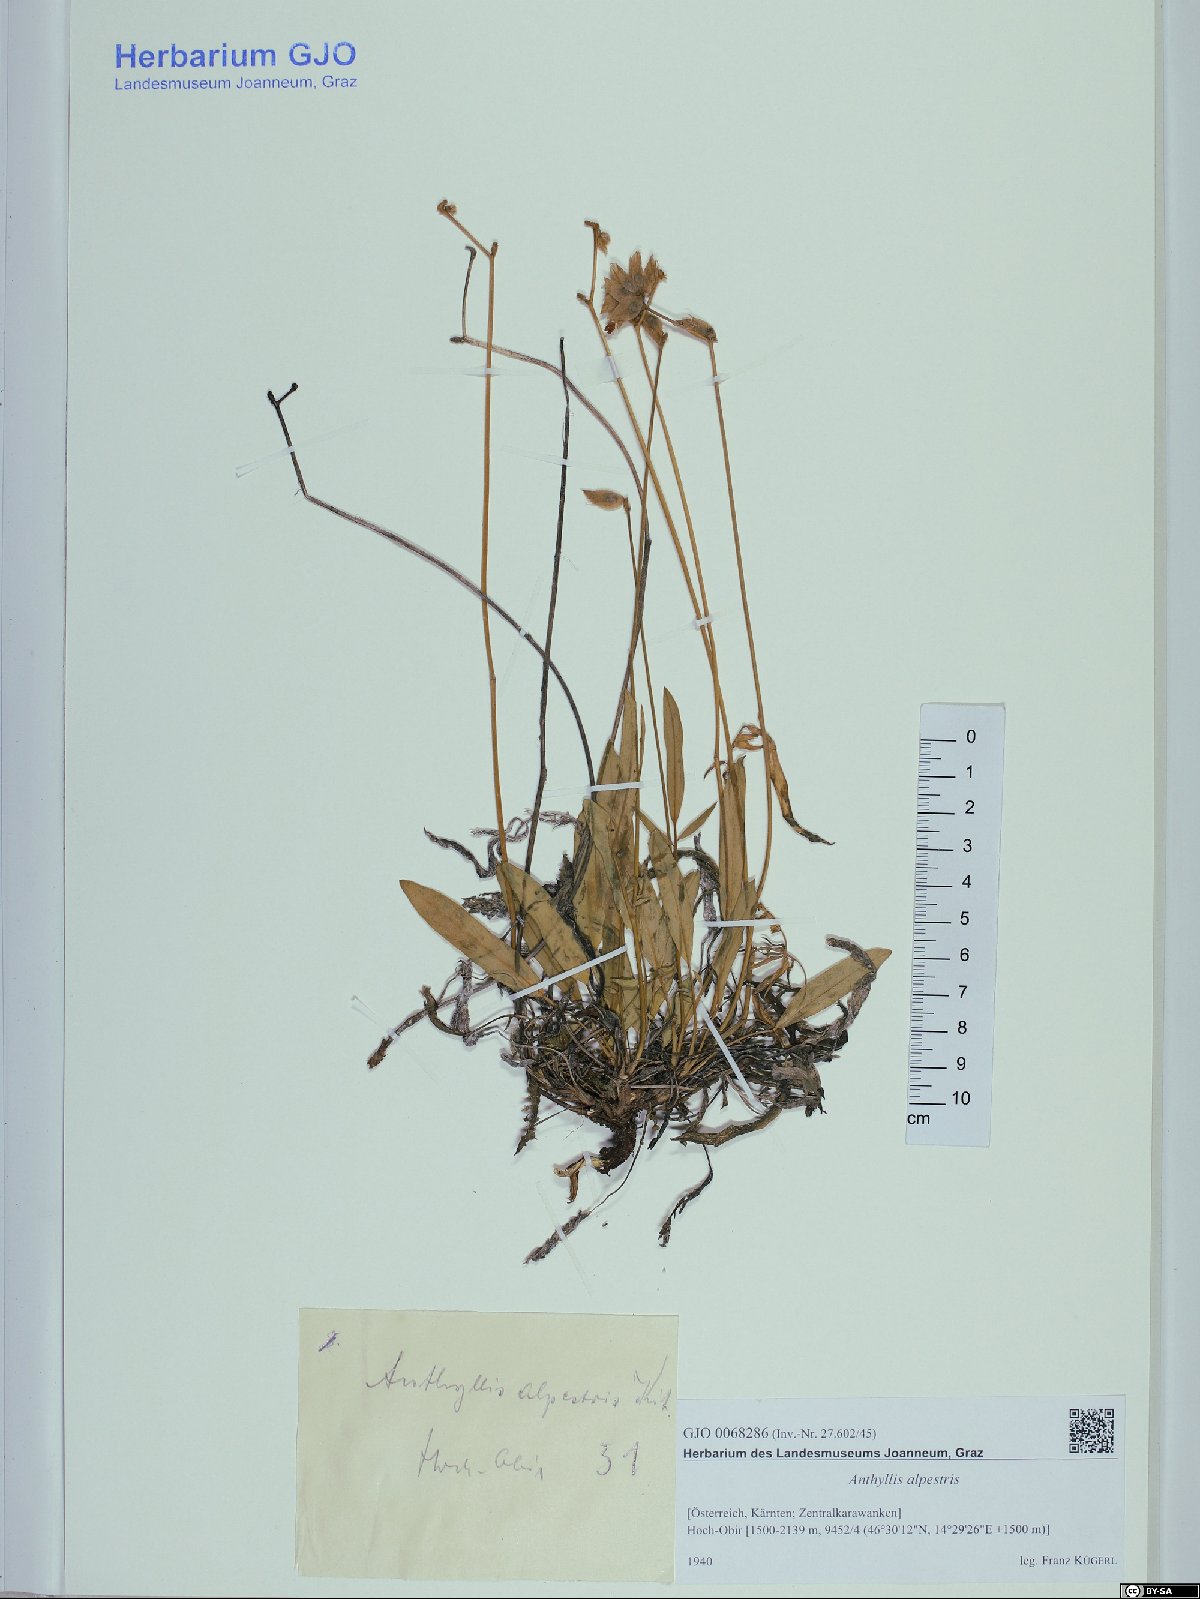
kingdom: Plantae
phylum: Tracheophyta
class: Magnoliopsida
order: Fabales
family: Fabaceae
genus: Anthyllis
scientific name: Anthyllis vulneraria
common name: Kidney vetch
